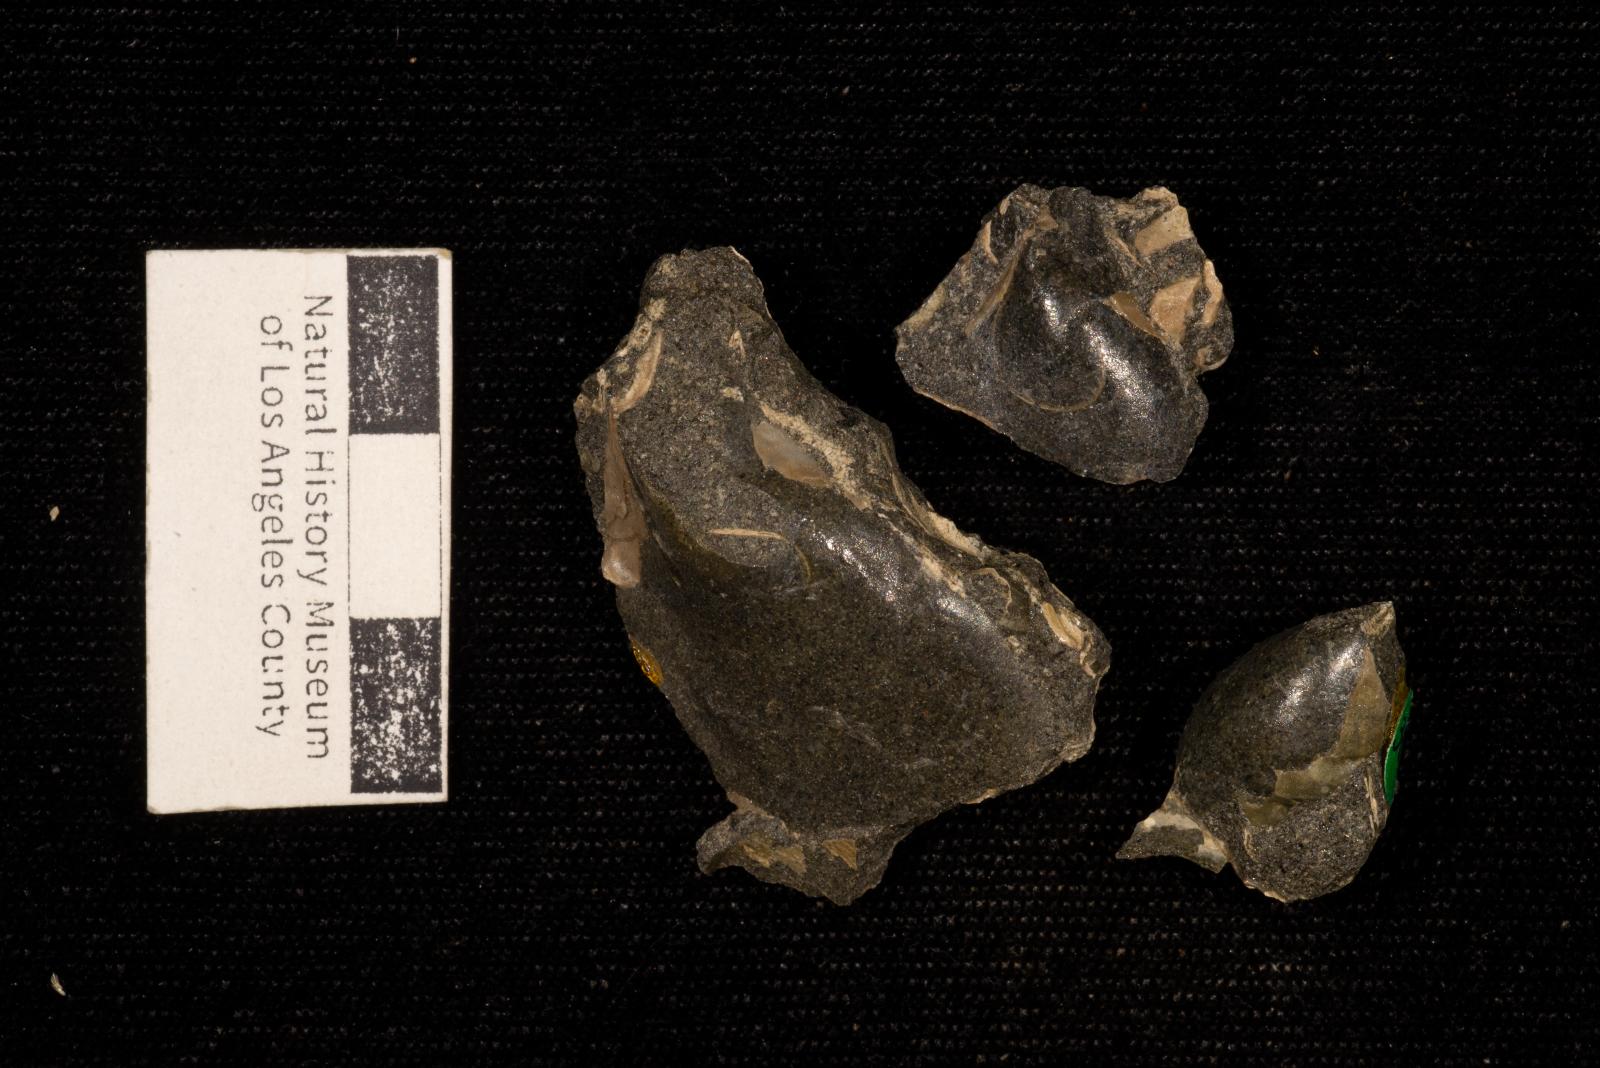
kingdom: Animalia
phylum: Mollusca
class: Bivalvia
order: Ostreida
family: Pteriidae
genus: Pteria
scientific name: Pteria pellucida
